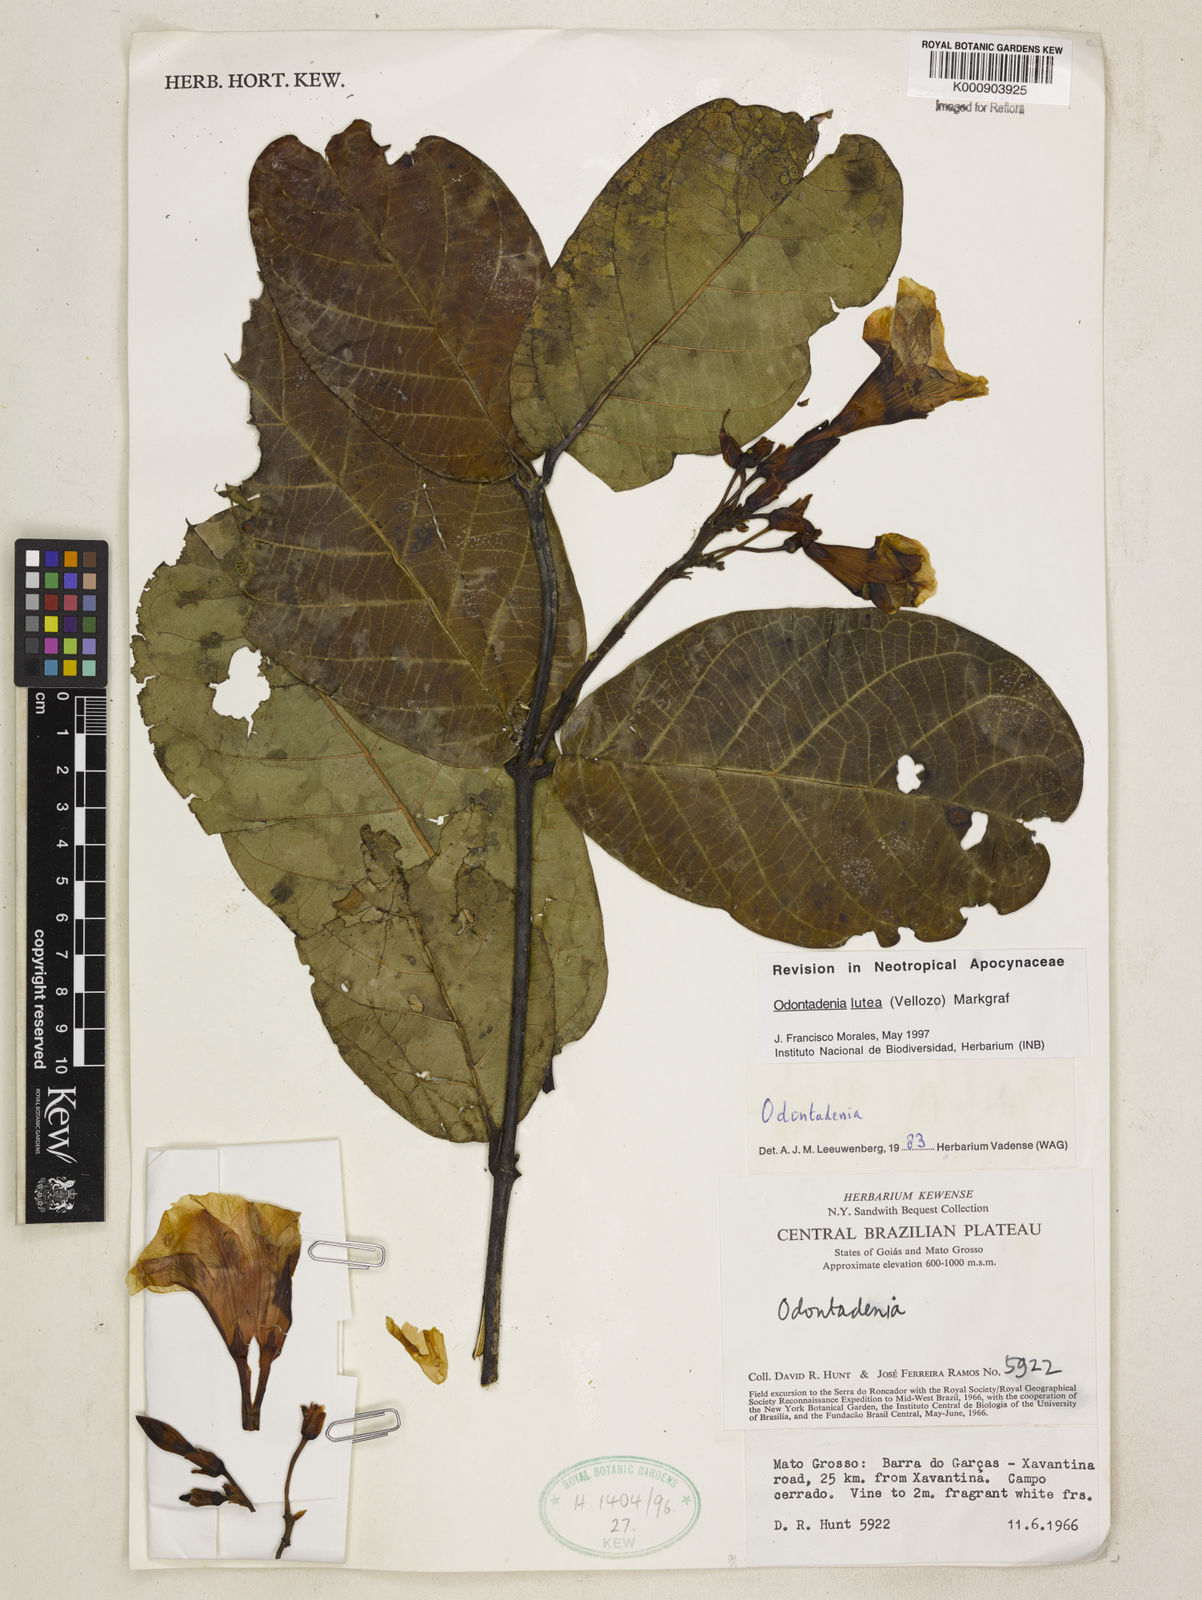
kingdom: Plantae
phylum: Tracheophyta
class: Magnoliopsida
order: Gentianales
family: Apocynaceae
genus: Odontadenia
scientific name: Odontadenia lutea
